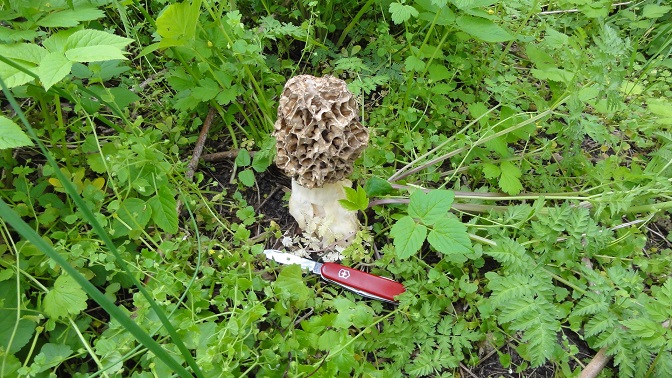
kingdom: Fungi
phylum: Ascomycota
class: Pezizomycetes
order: Pezizales
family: Morchellaceae
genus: Morchella
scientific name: Morchella esculenta
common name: spiselig morkel
